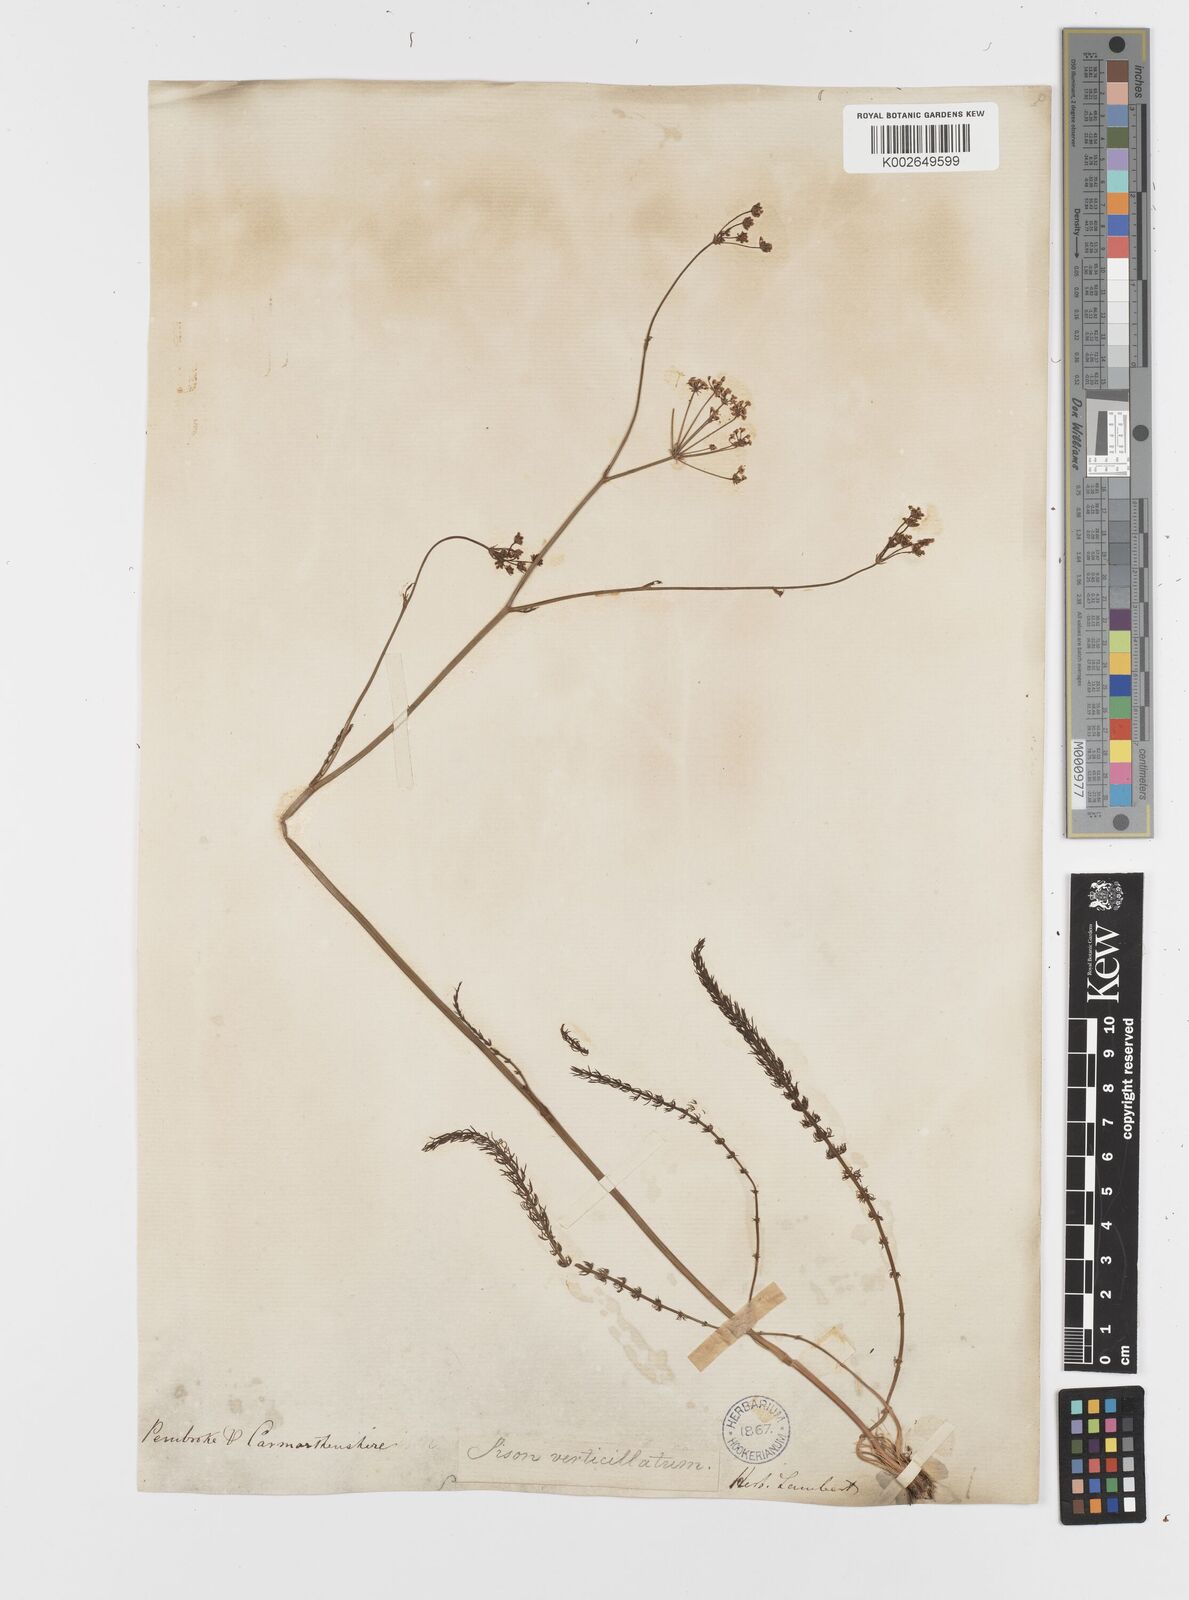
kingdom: Plantae
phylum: Tracheophyta
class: Magnoliopsida
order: Apiales
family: Apiaceae
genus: Trocdaris
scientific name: Trocdaris verticillatum
